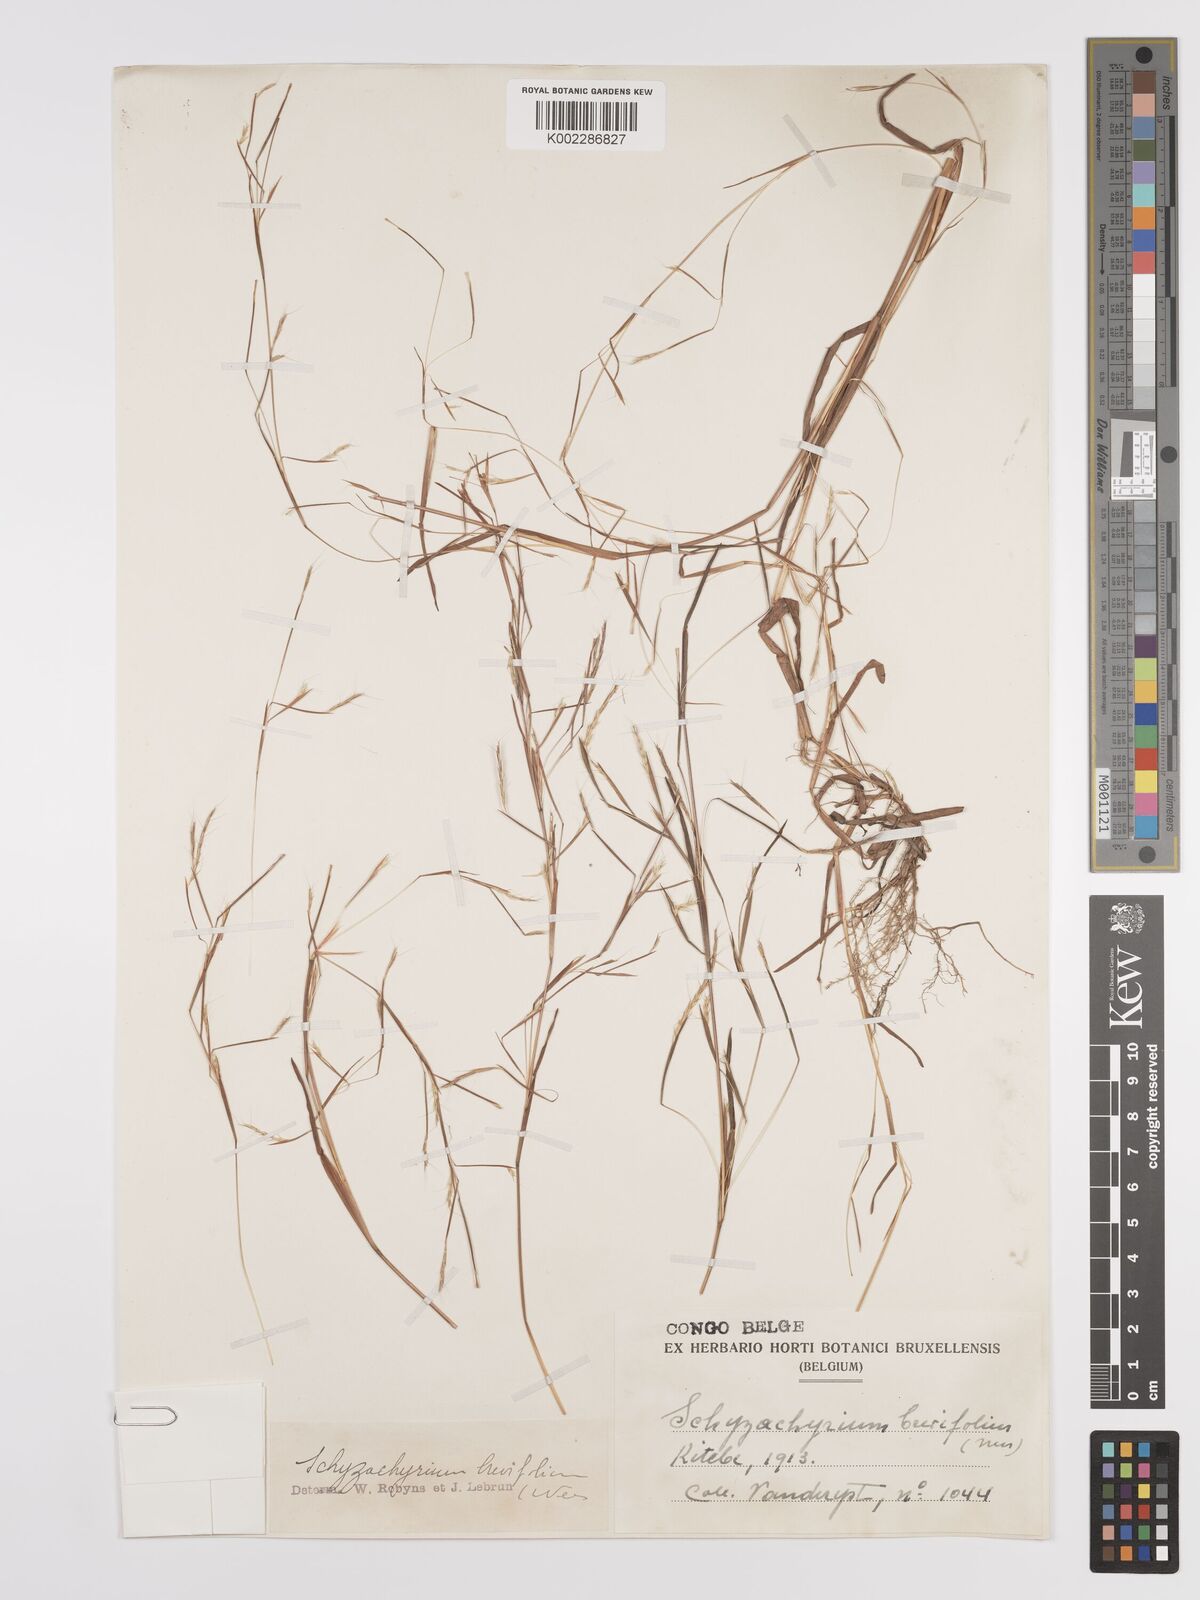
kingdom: Plantae
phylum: Tracheophyta
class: Liliopsida
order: Poales
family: Poaceae
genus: Schizachyrium
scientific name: Schizachyrium maclaudii
